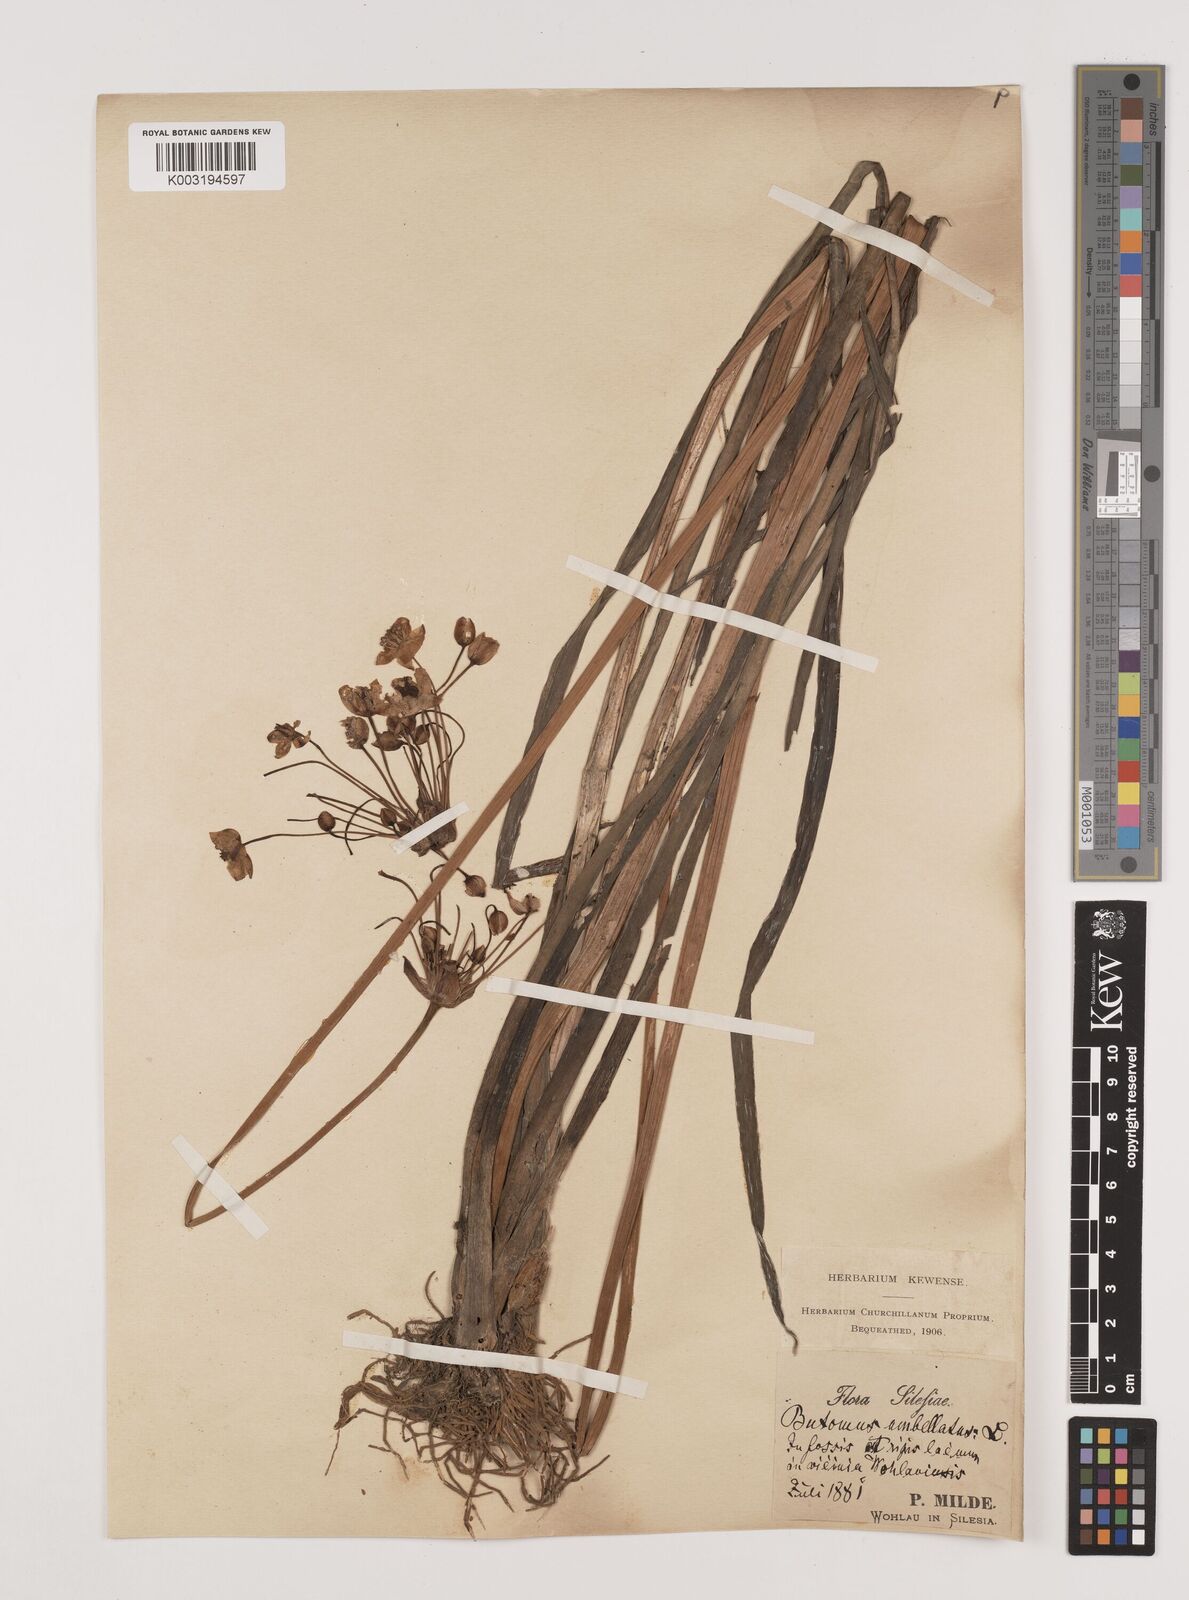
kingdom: Plantae
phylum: Tracheophyta
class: Liliopsida
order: Alismatales
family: Butomaceae
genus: Butomus
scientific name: Butomus umbellatus
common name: Flowering-rush
